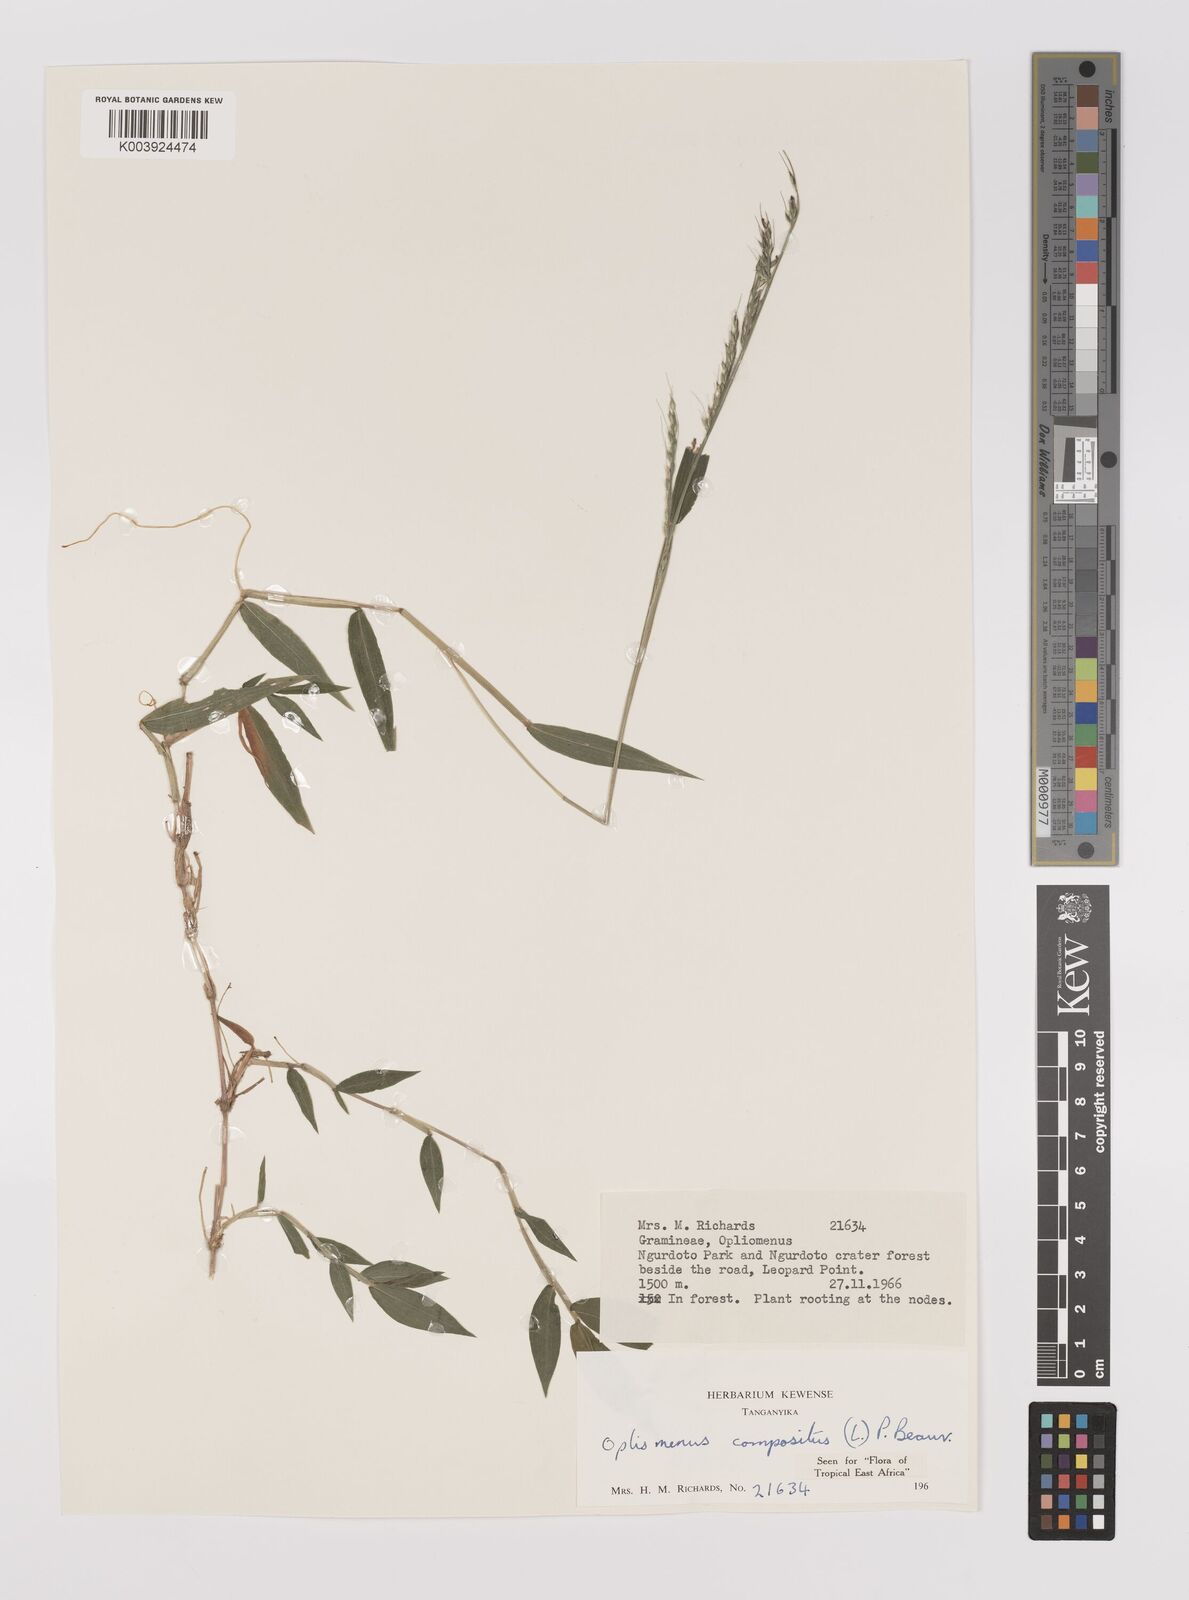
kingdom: Plantae
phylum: Tracheophyta
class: Liliopsida
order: Poales
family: Poaceae
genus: Oplismenus
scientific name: Oplismenus compositus
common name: Running mountain grass
